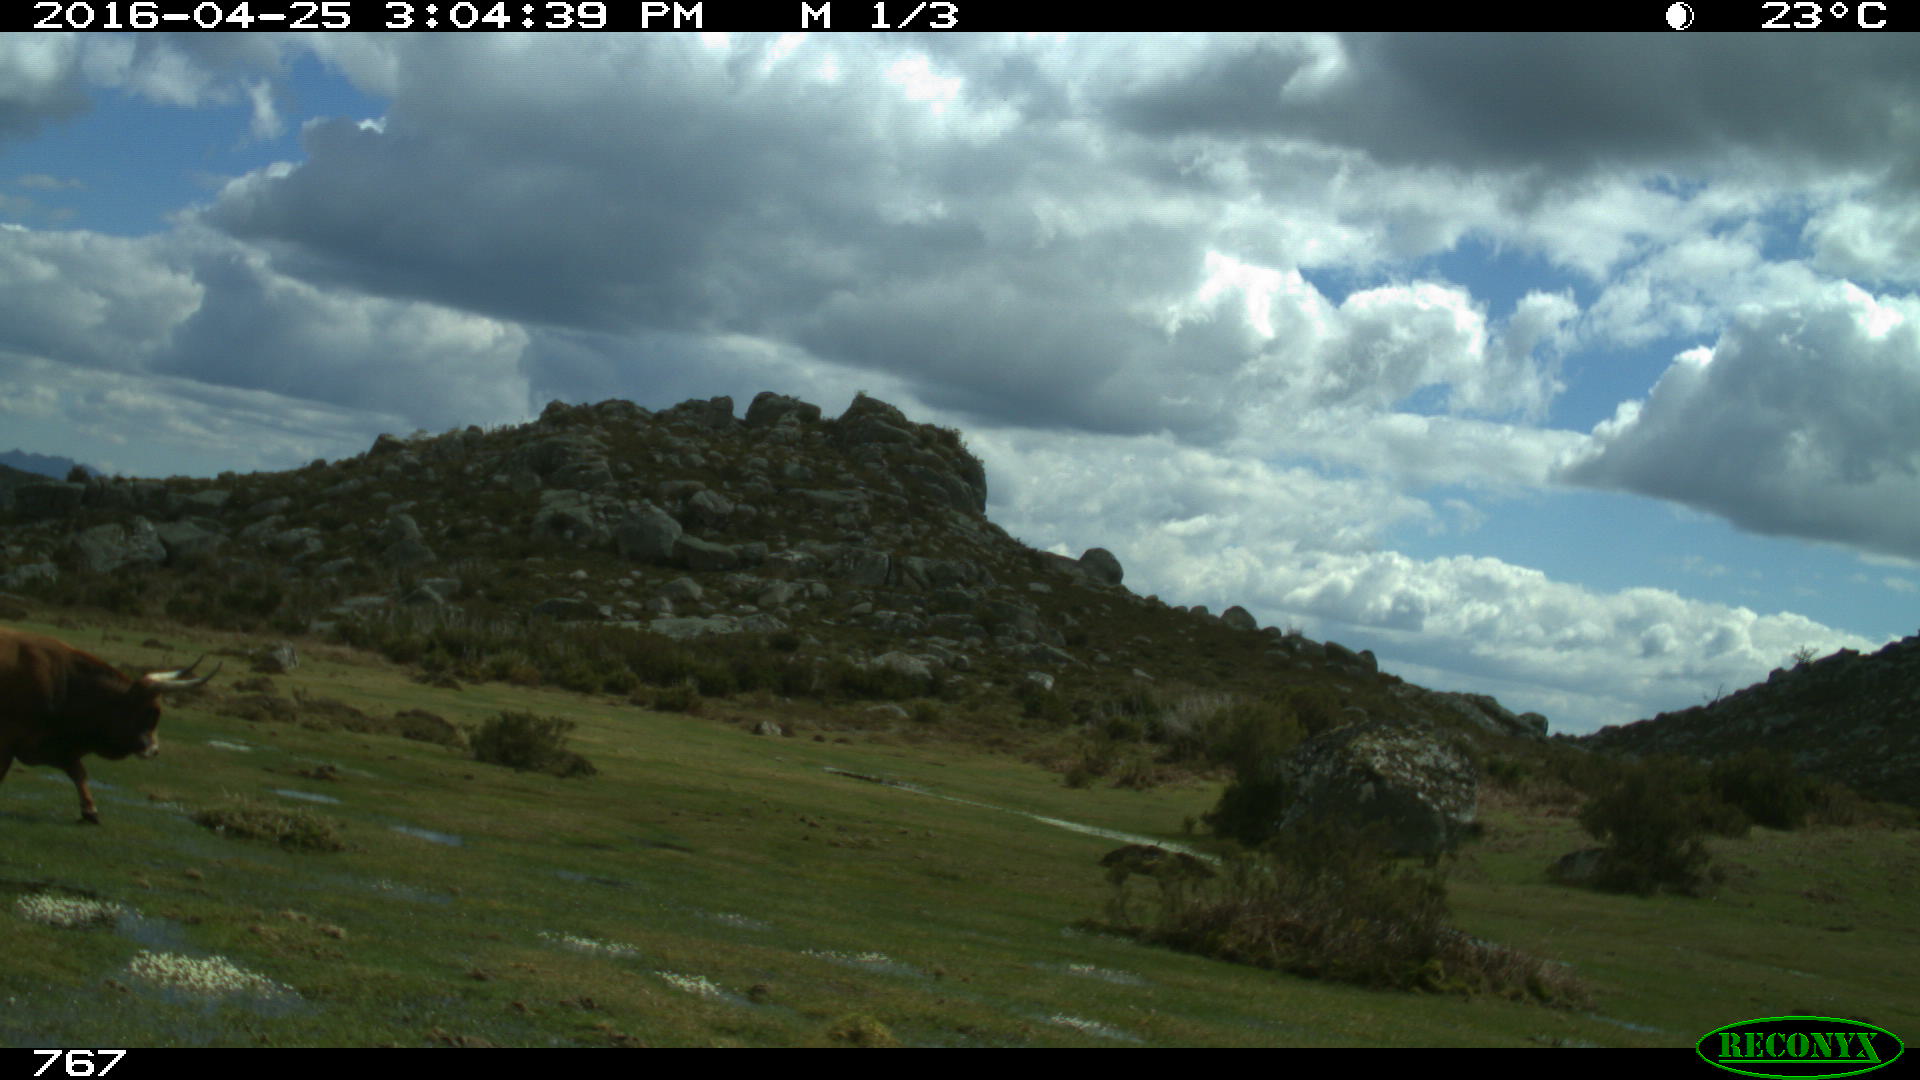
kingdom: Animalia
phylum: Chordata
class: Mammalia
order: Artiodactyla
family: Bovidae
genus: Bos
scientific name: Bos taurus
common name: Domesticated cattle
